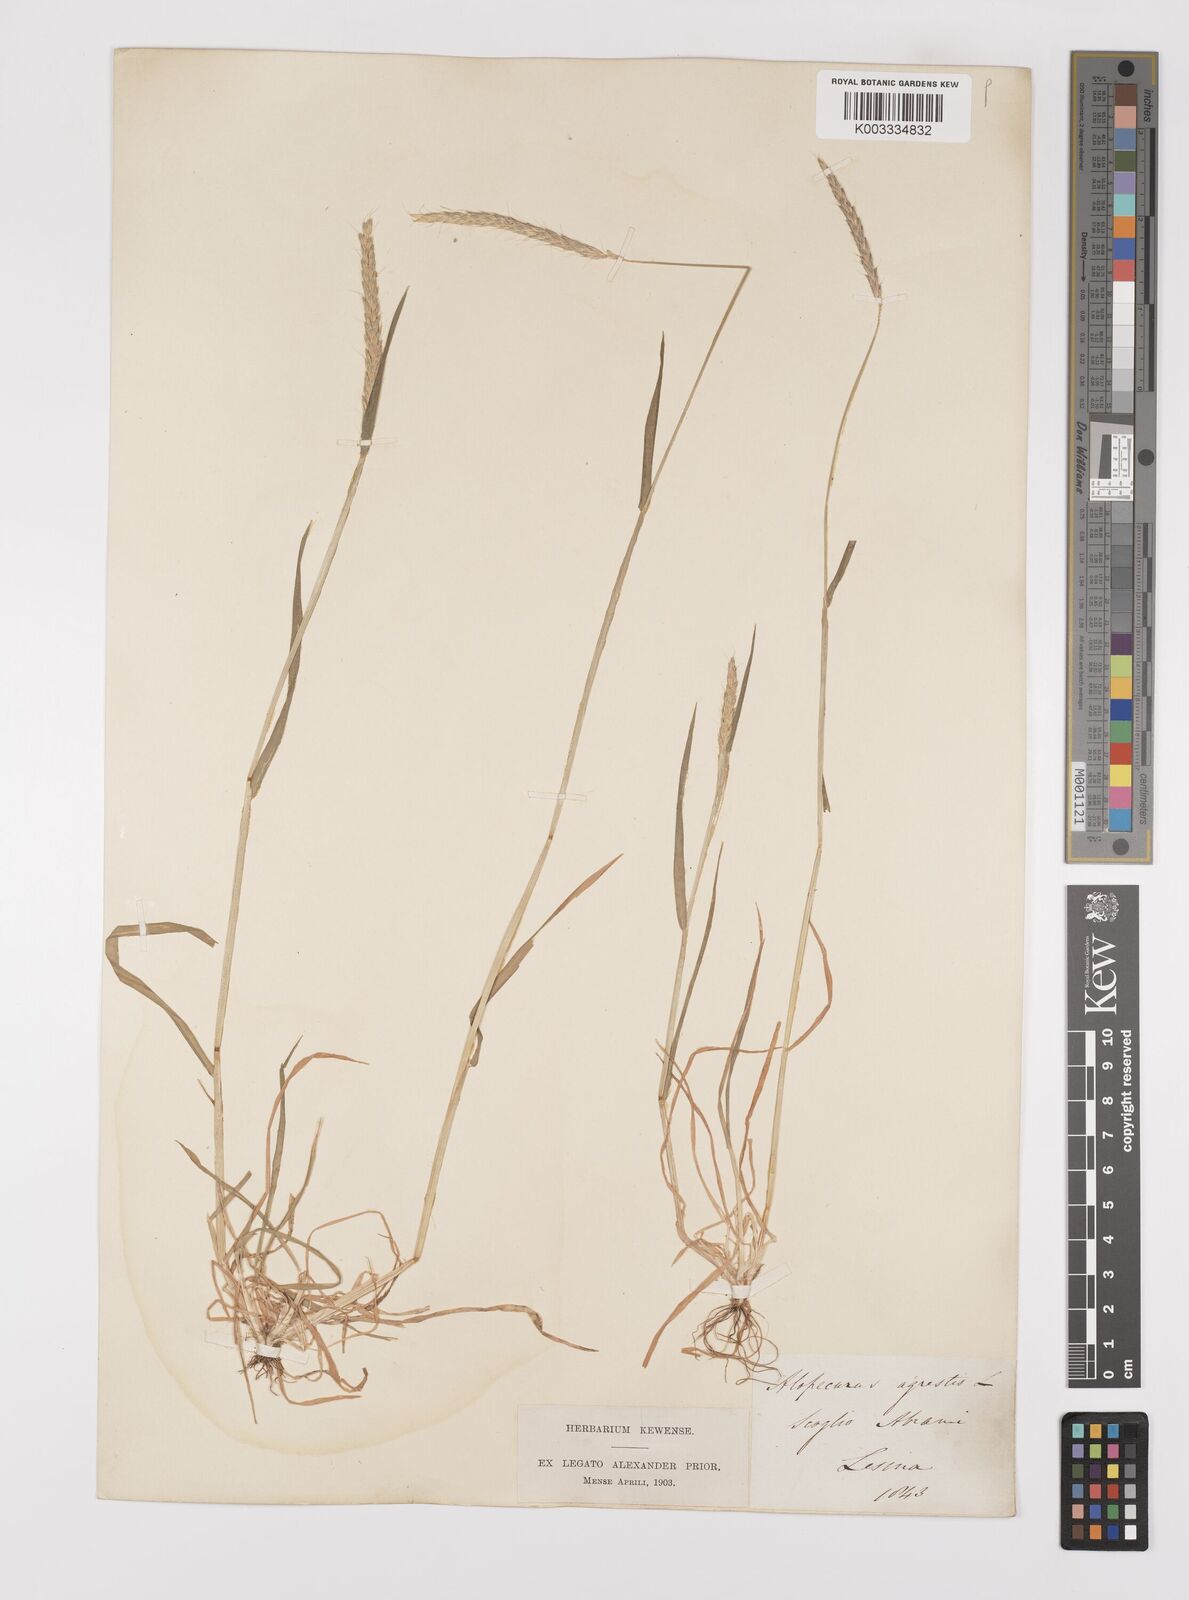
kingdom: Plantae
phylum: Tracheophyta
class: Liliopsida
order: Poales
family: Poaceae
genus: Alopecurus
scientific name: Alopecurus myosuroides
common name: Black-grass
